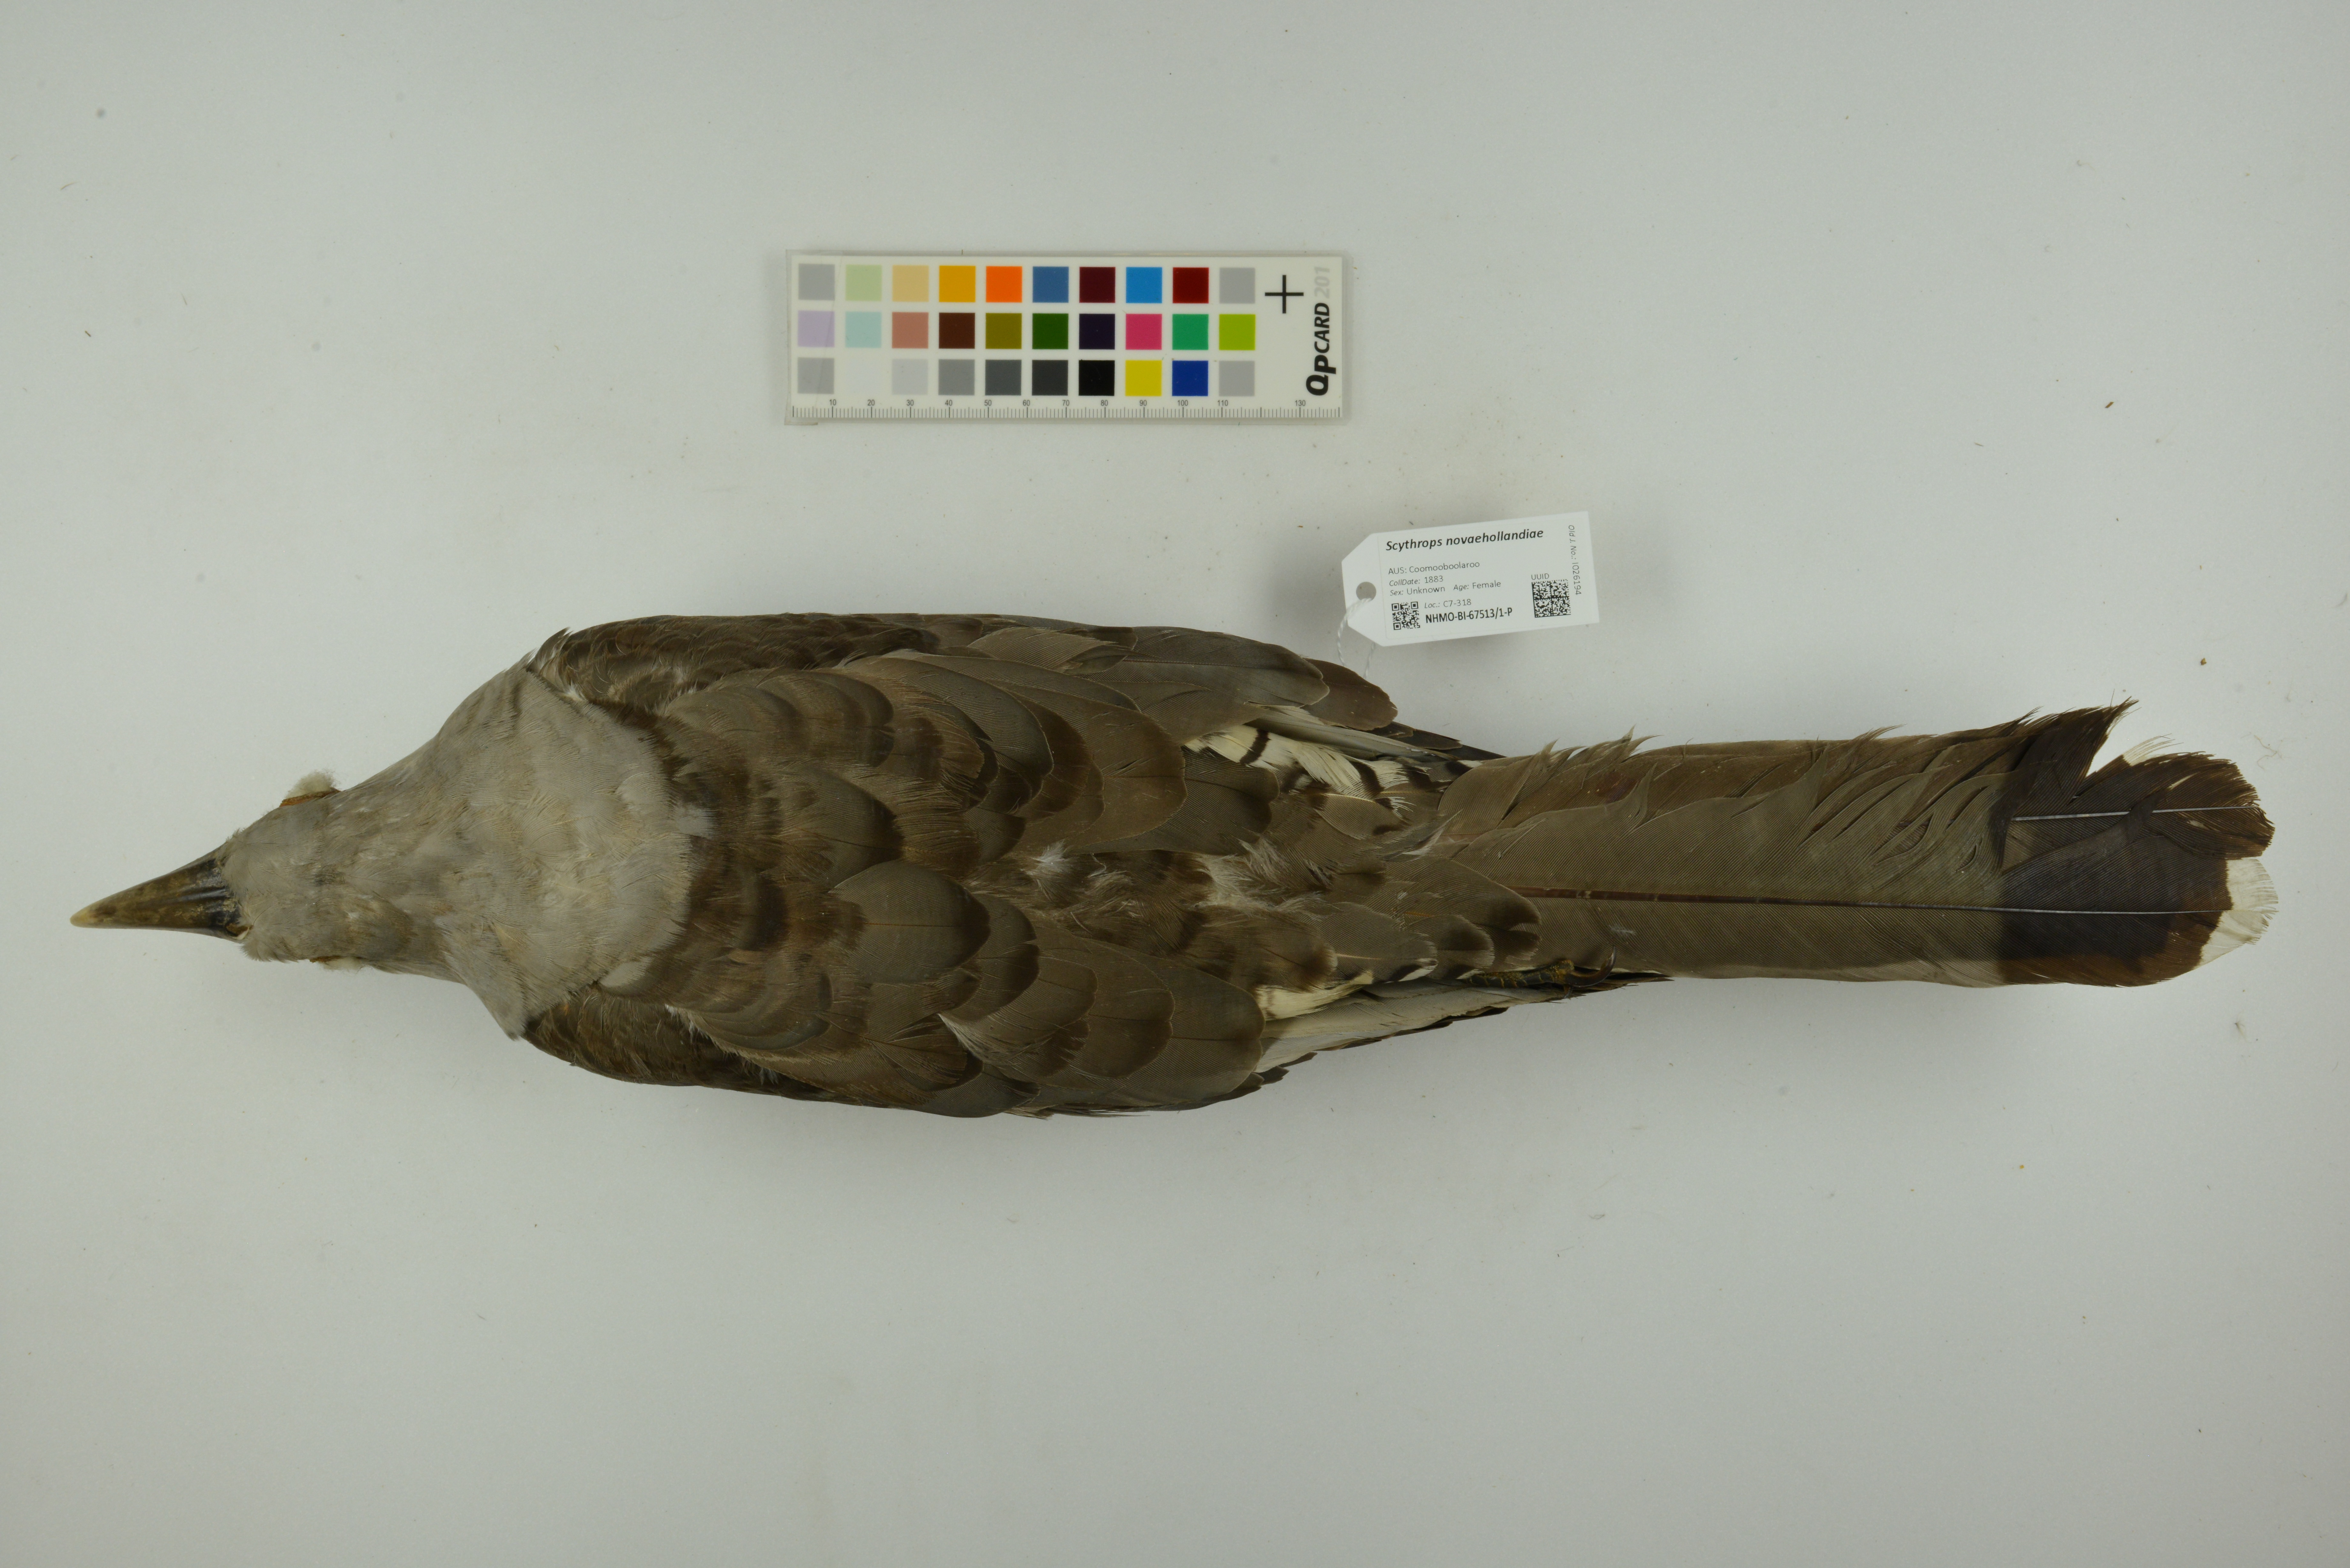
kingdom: Animalia
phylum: Chordata
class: Aves
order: Cuculiformes
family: Cuculidae
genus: Scythrops
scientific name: Scythrops novaehollandiae
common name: Channel-billed cuckoo
